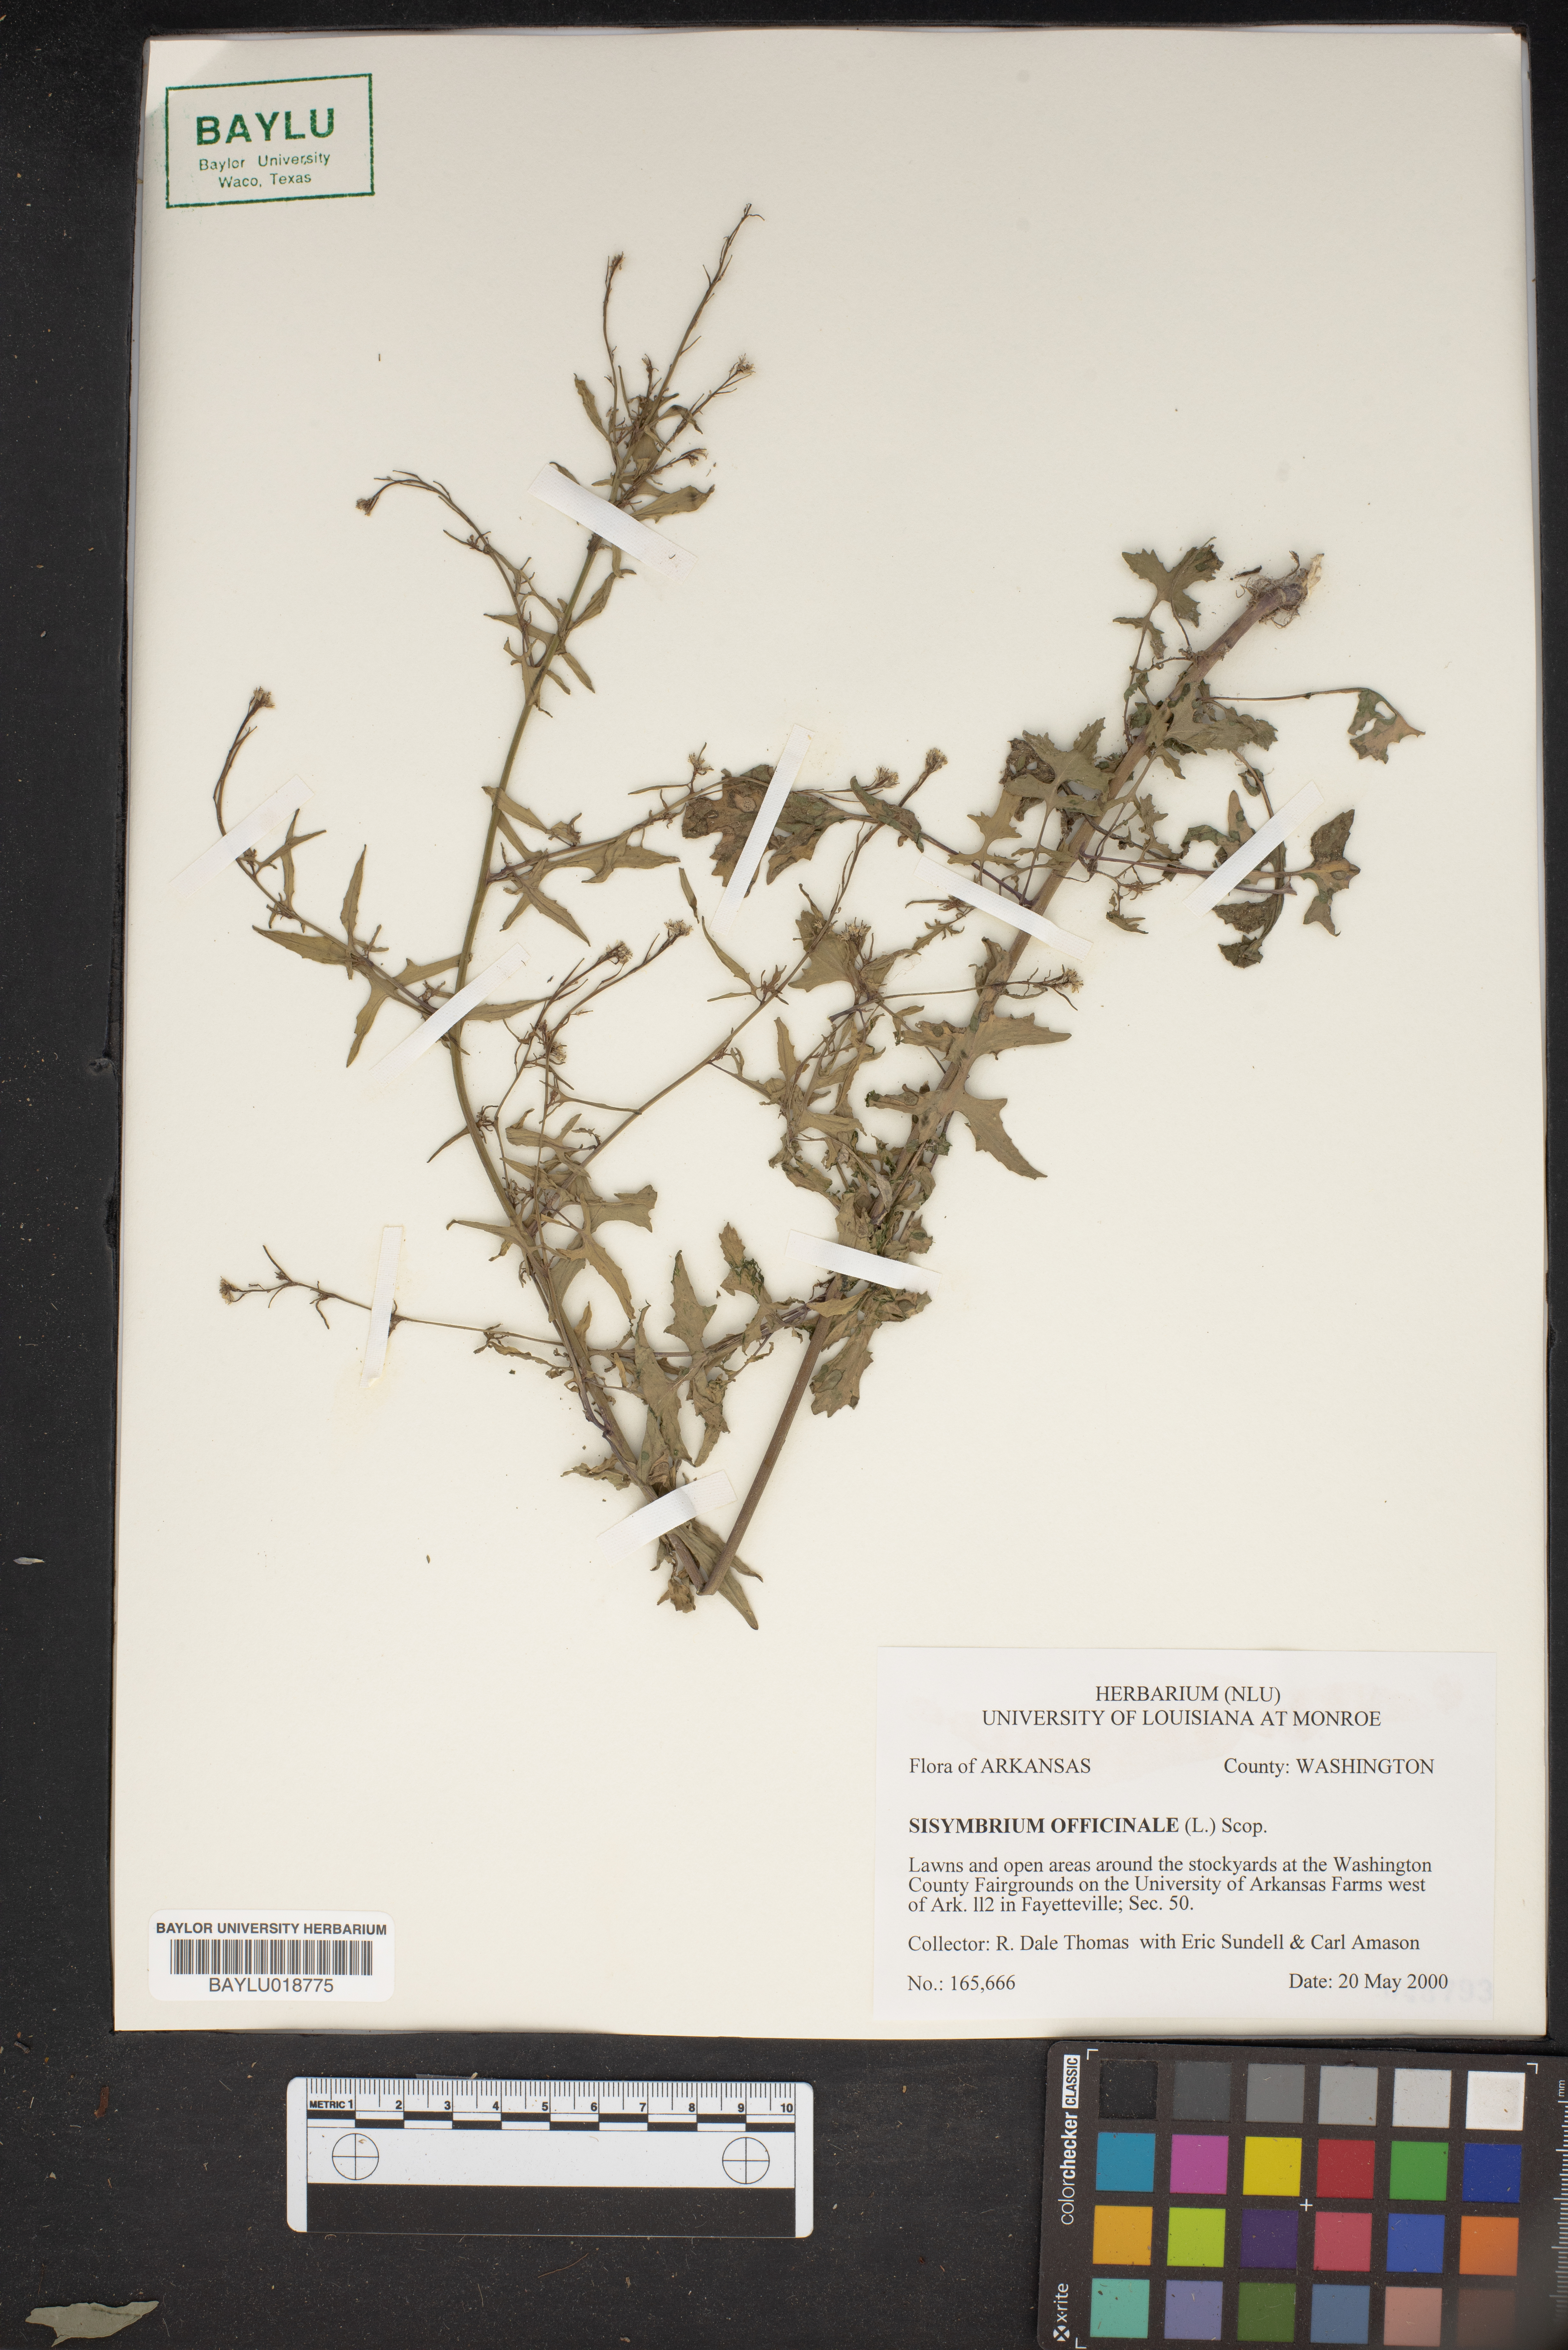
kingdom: Plantae
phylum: Tracheophyta
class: Magnoliopsida
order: Brassicales
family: Brassicaceae
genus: Sisymbrium
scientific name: Sisymbrium officinale
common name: Hedge mustard
